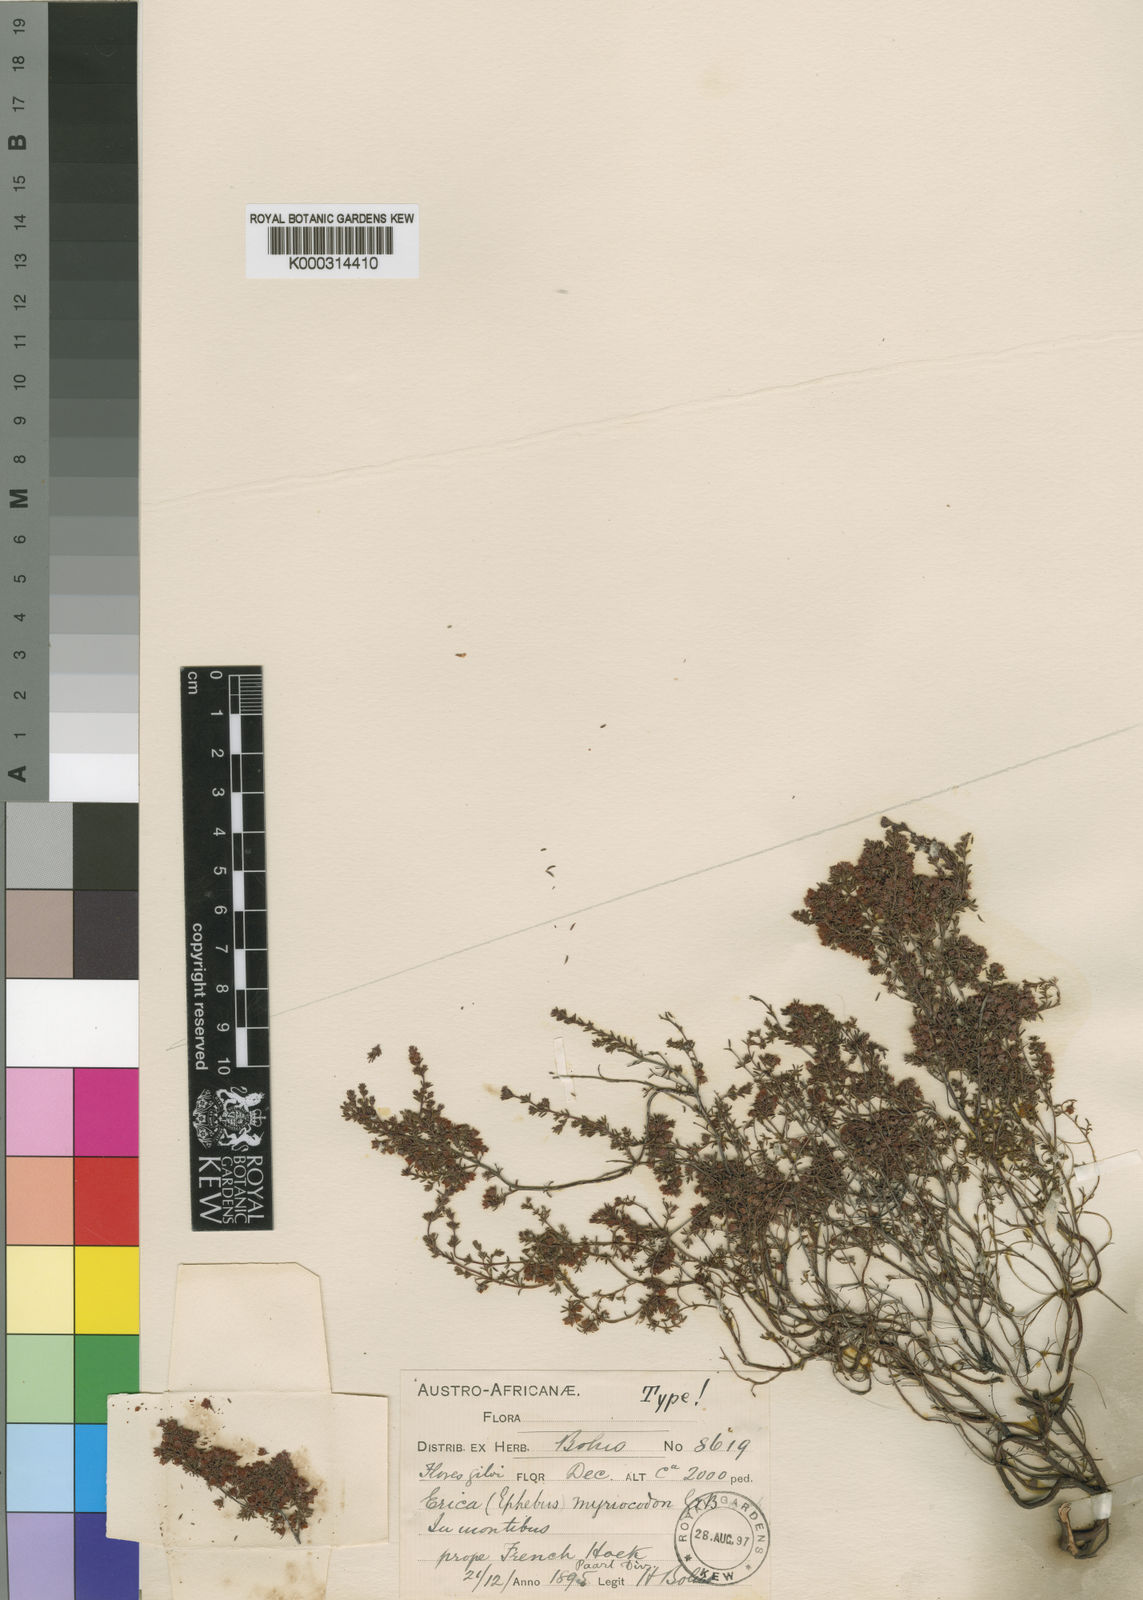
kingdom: Plantae
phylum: Tracheophyta
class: Magnoliopsida
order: Ericales
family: Ericaceae
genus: Erica
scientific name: Erica myriocodon
